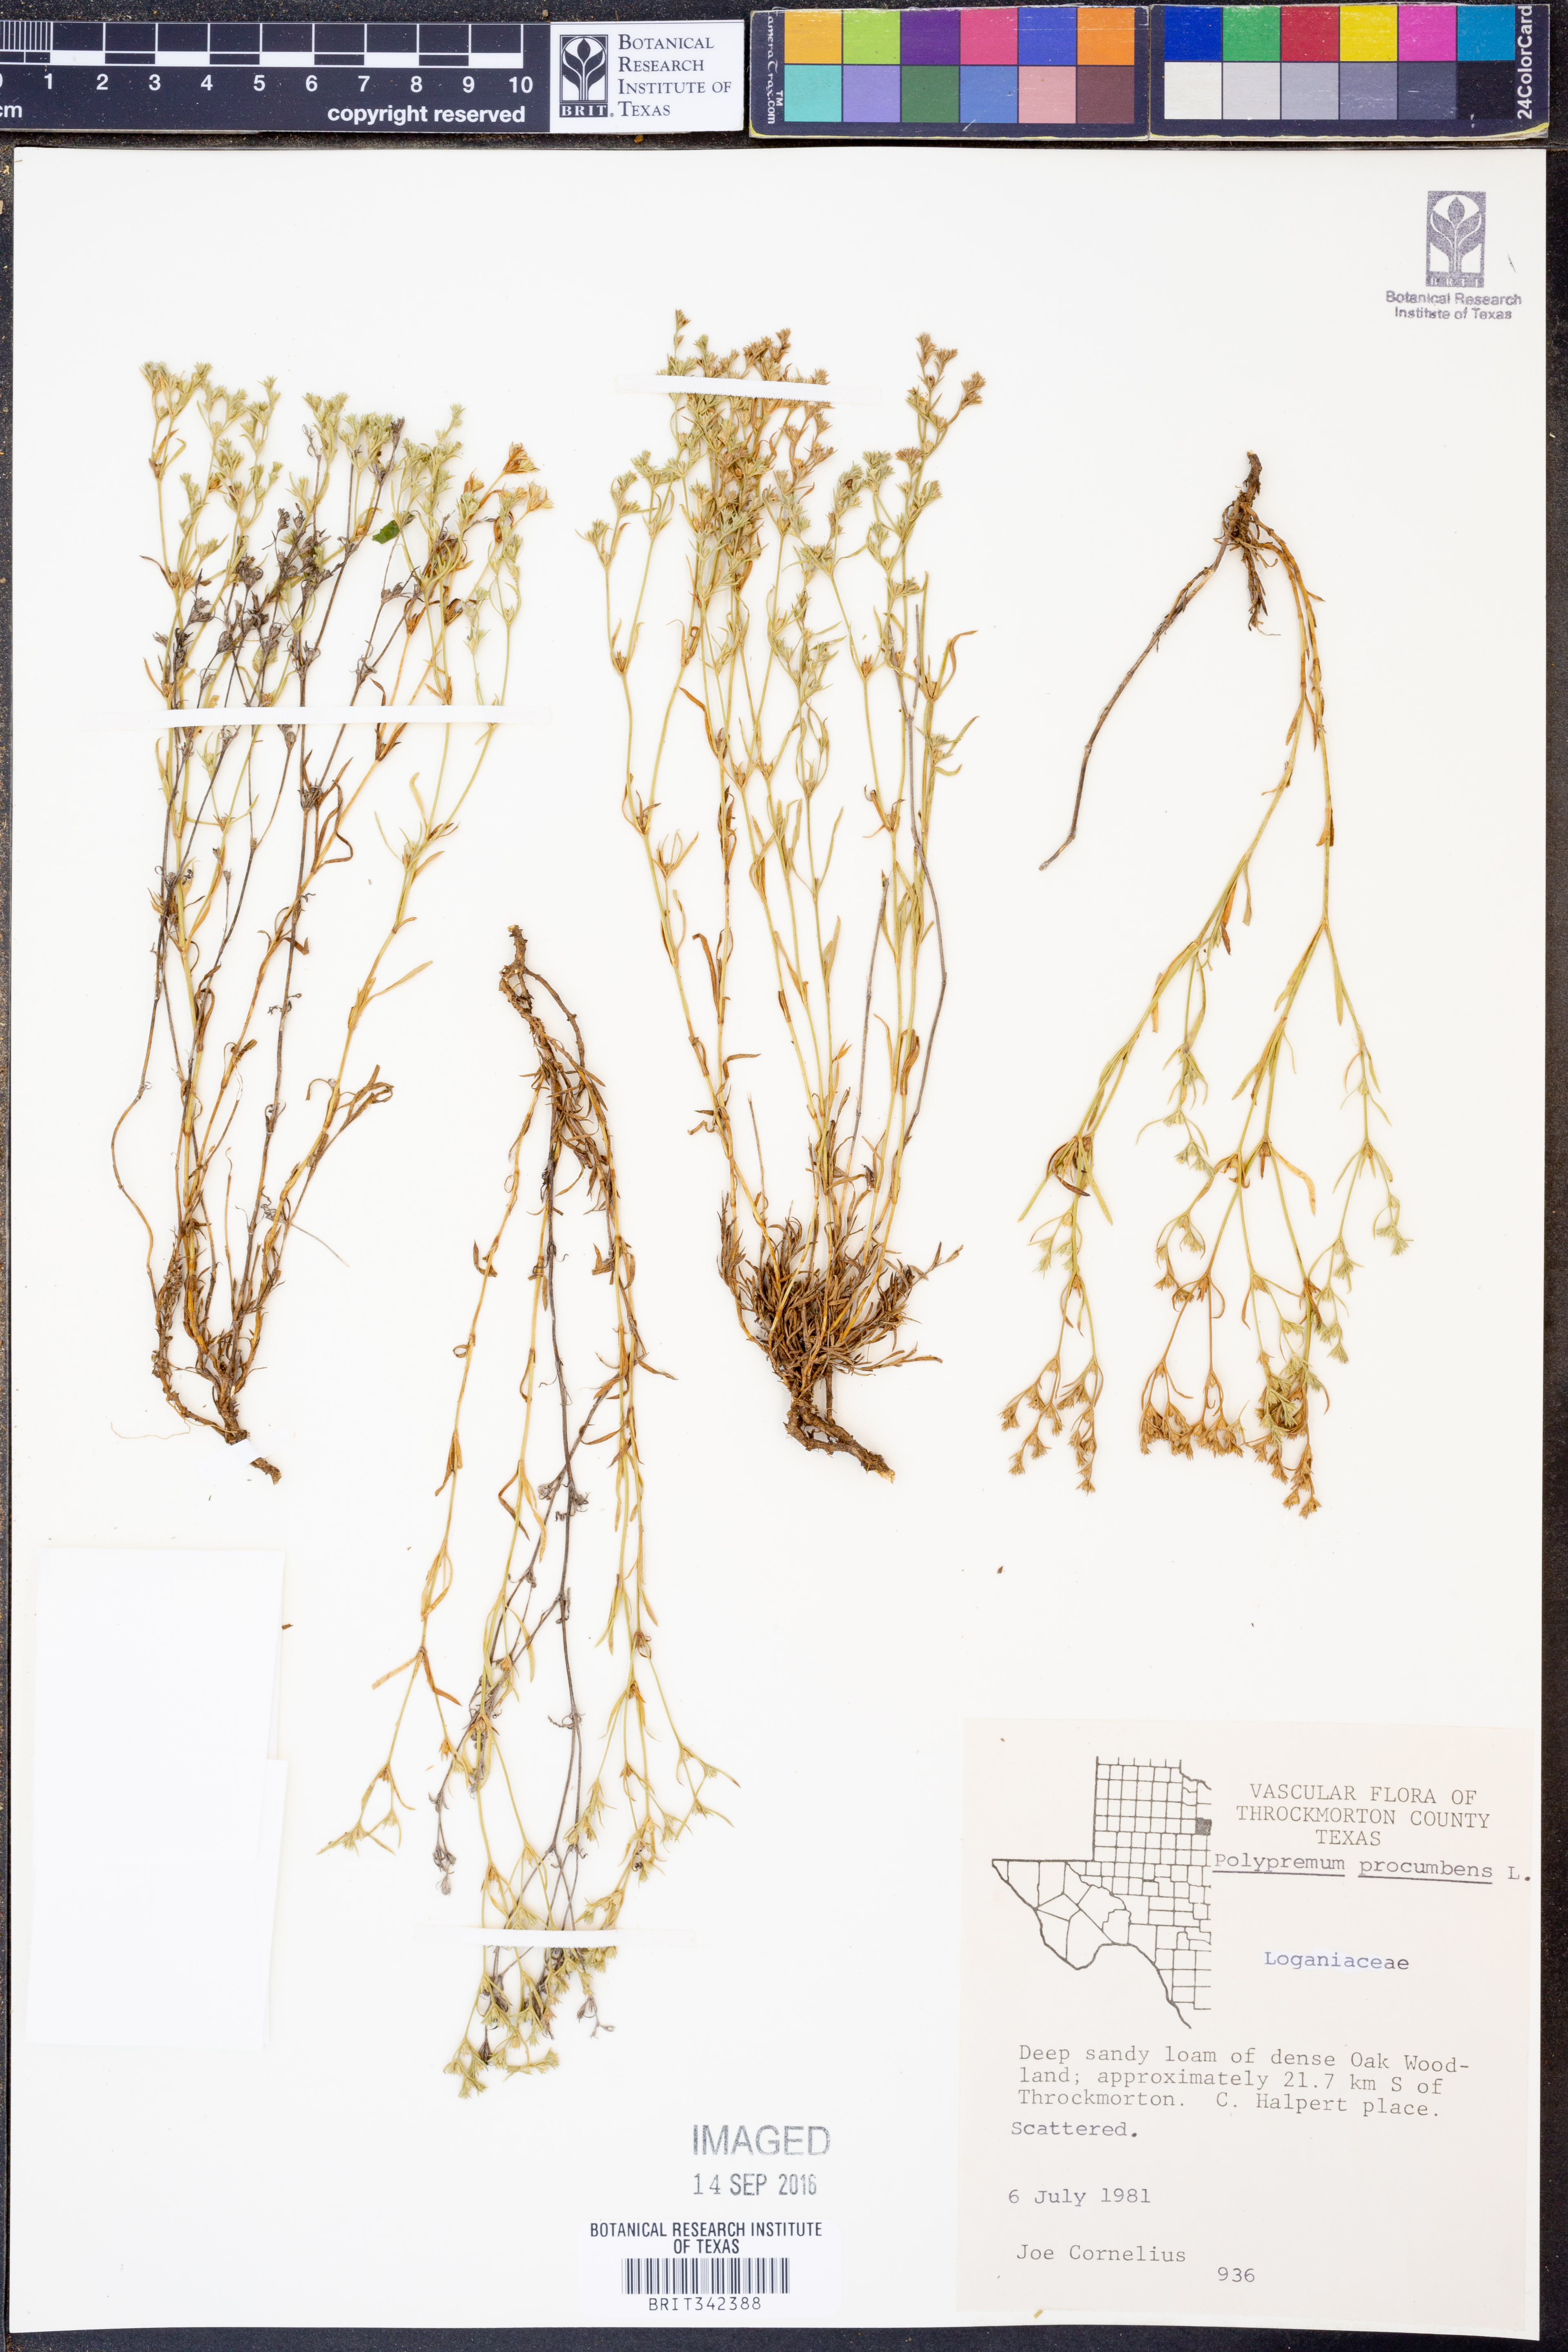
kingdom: Plantae
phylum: Tracheophyta
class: Magnoliopsida
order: Lamiales
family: Tetrachondraceae
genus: Polypremum
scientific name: Polypremum procumbens
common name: Juniper-leaf
